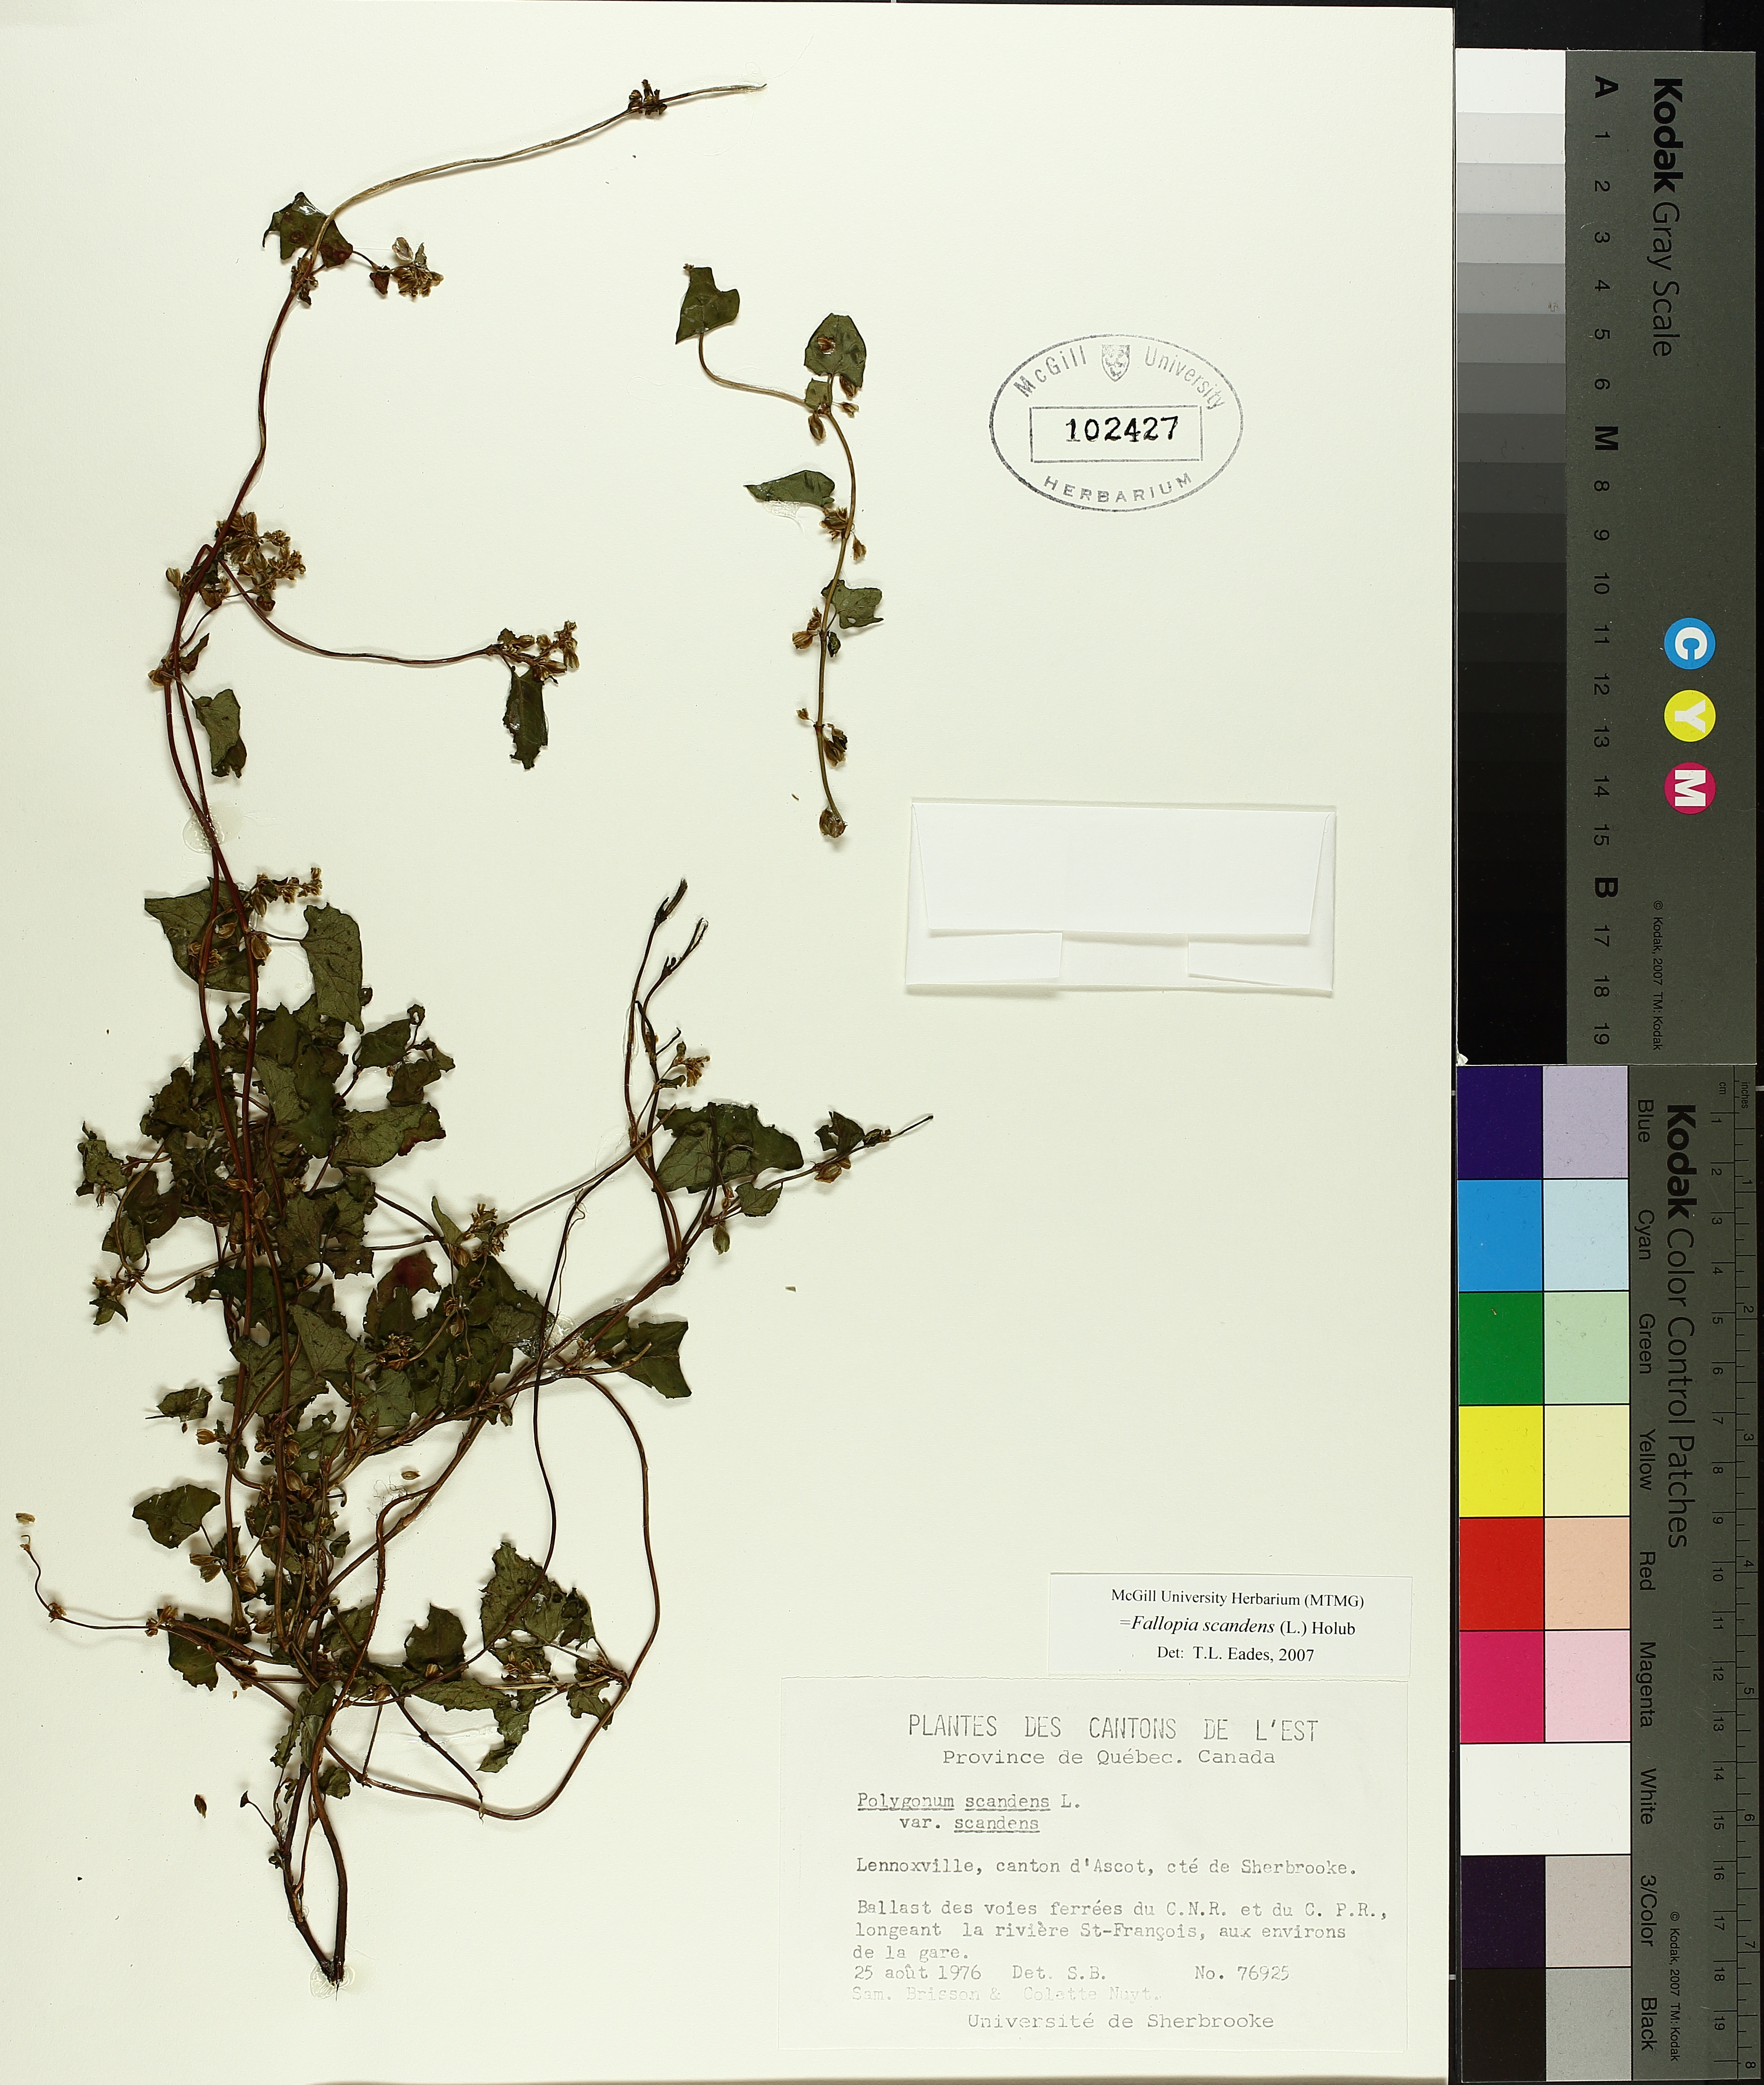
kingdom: Plantae
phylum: Tracheophyta
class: Magnoliopsida
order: Caryophyllales
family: Polygonaceae
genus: Fallopia
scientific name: Fallopia scandens
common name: Climbing false buckwheat
